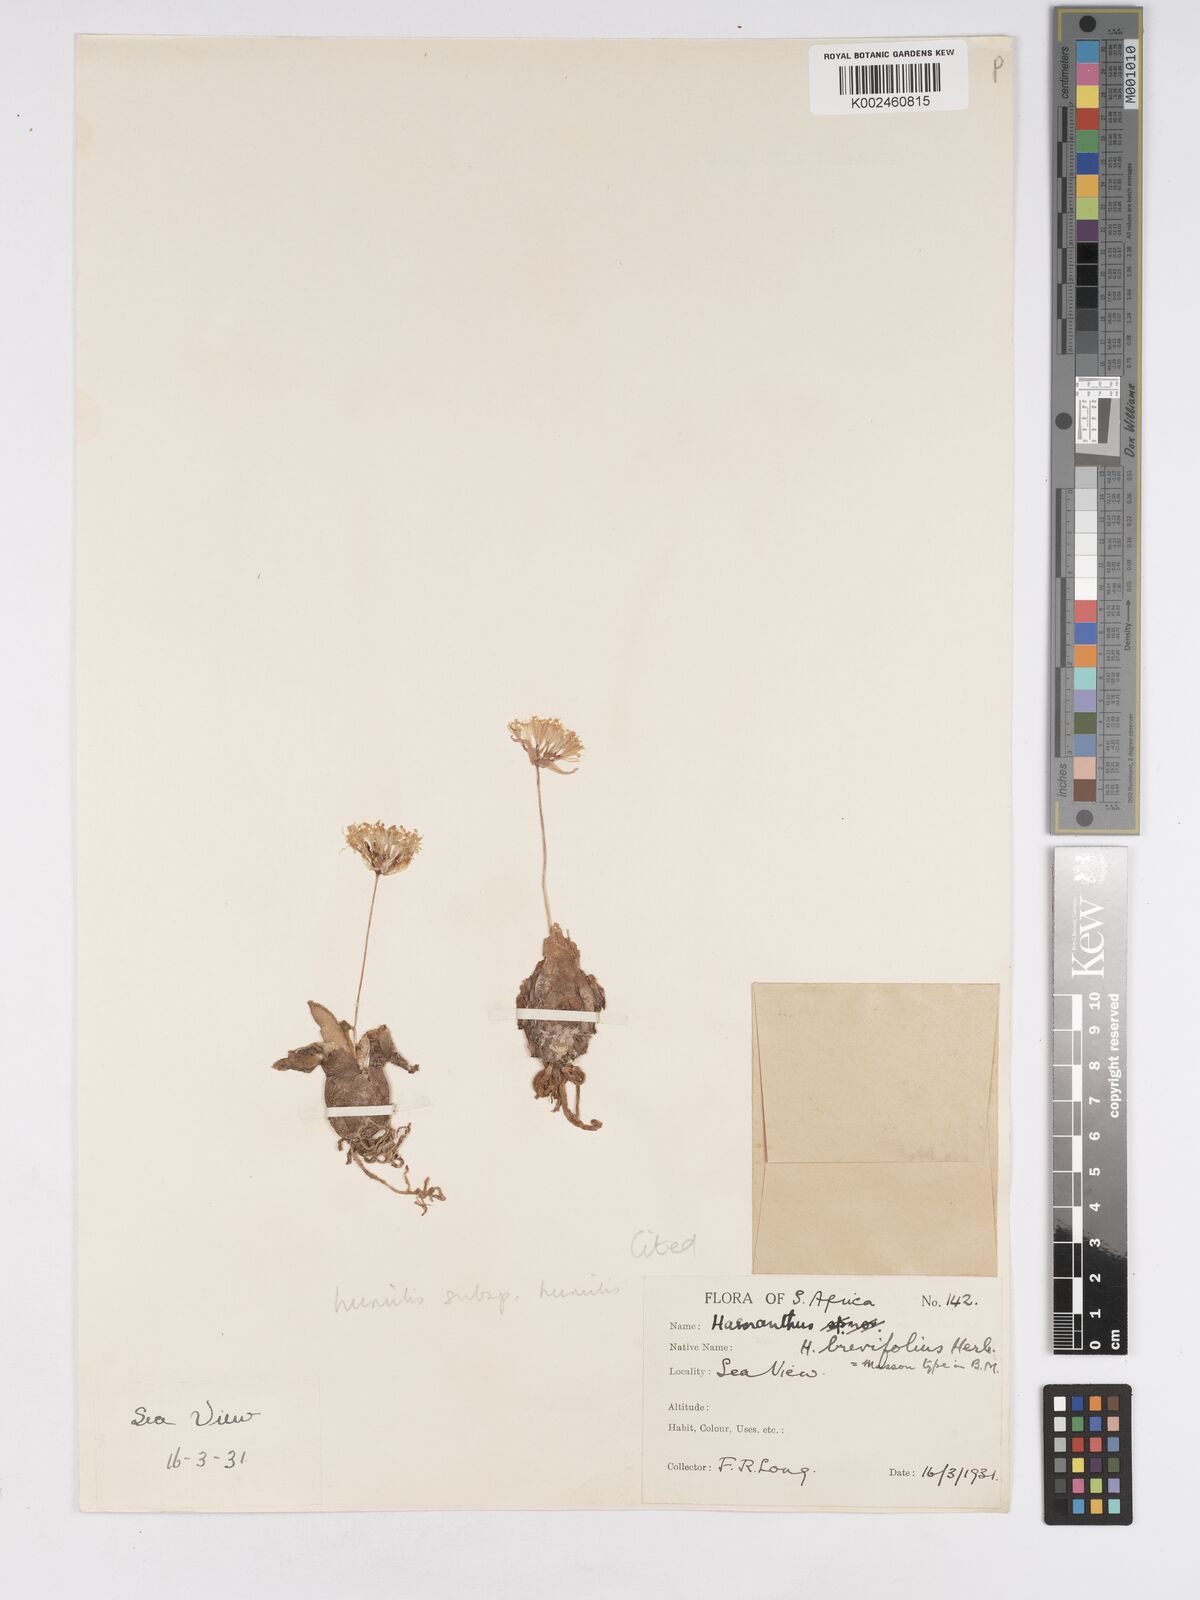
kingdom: Plantae
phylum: Tracheophyta
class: Liliopsida
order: Asparagales
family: Amaryllidaceae
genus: Haemanthus
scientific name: Haemanthus humilis
